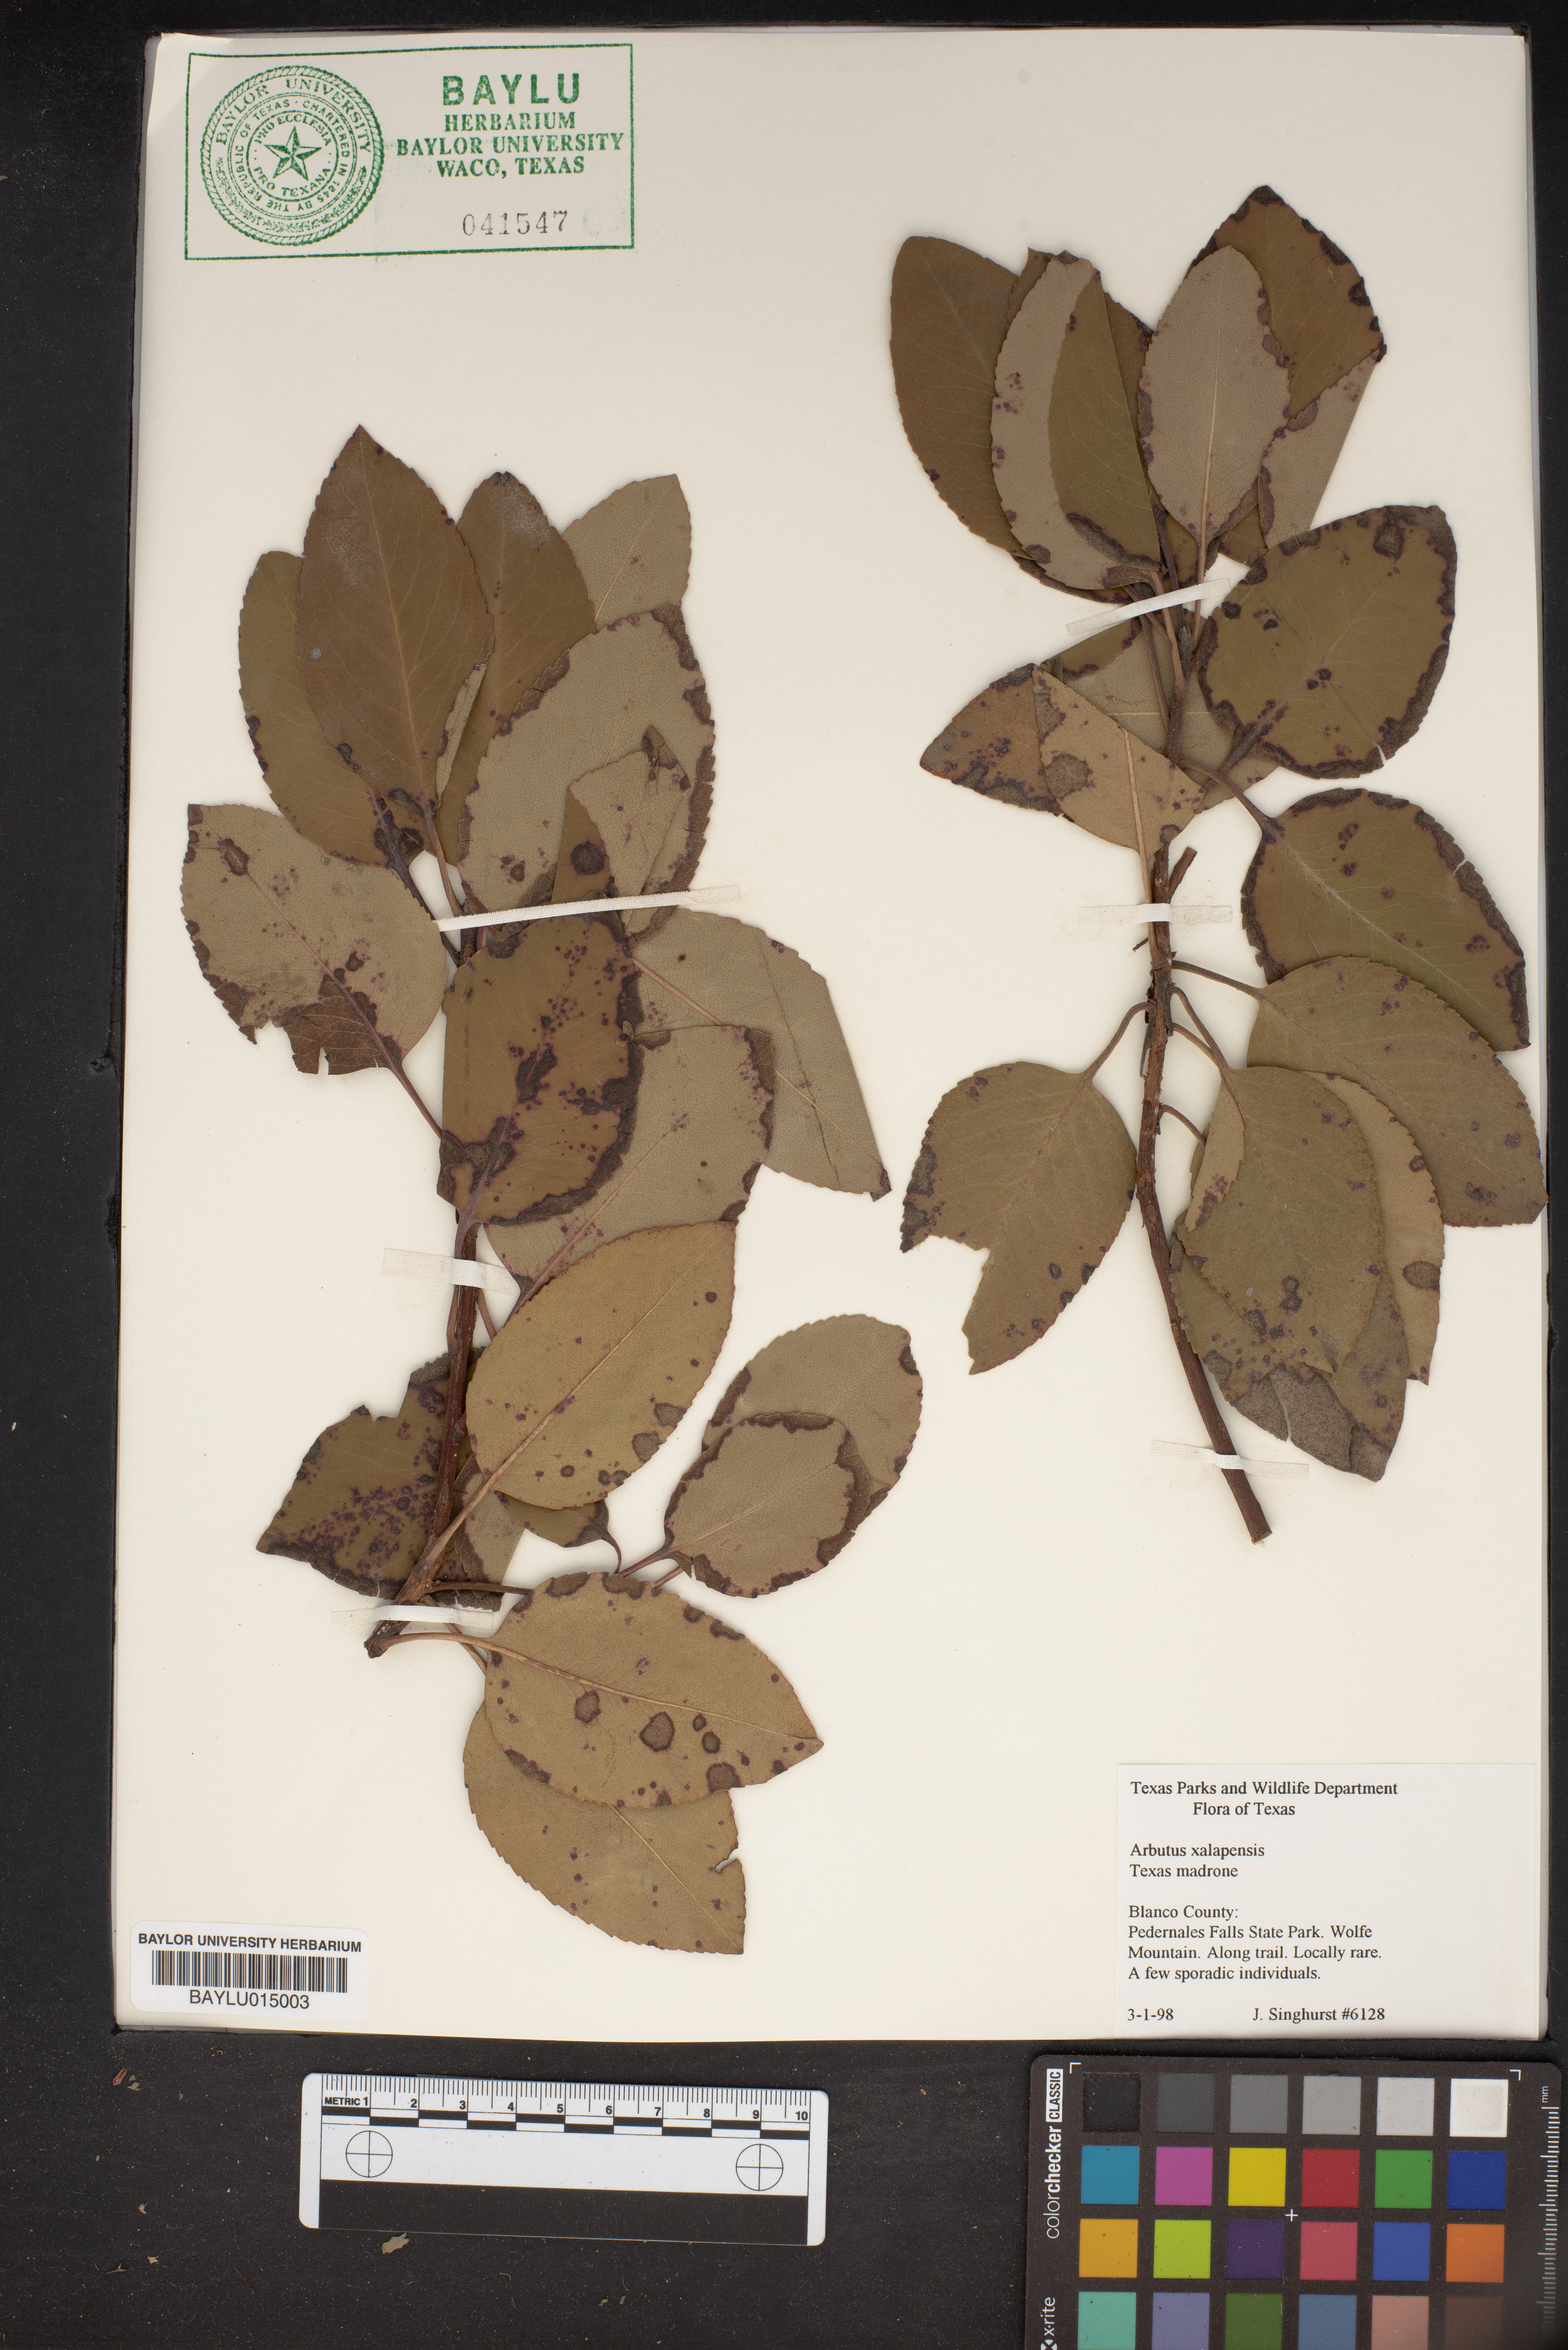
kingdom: Plantae
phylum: Tracheophyta
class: Magnoliopsida
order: Ericales
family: Ericaceae
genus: Arbutus
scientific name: Arbutus xalapensis
